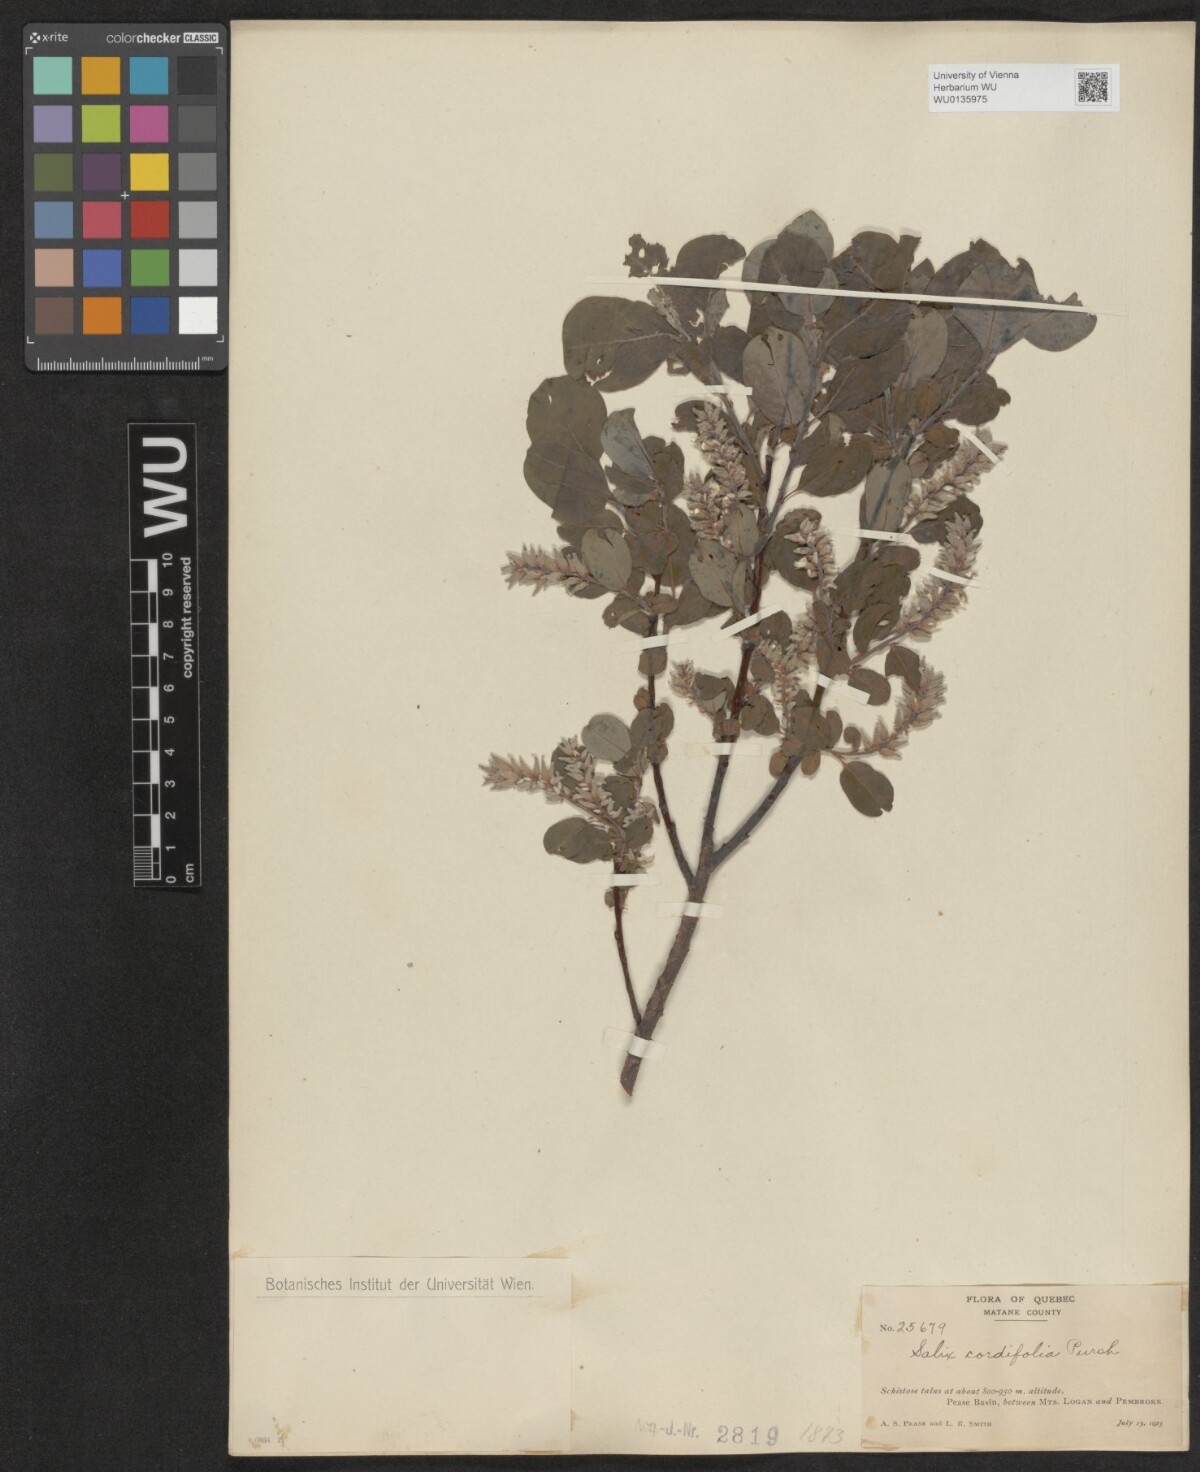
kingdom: Plantae
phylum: Tracheophyta
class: Magnoliopsida
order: Malpighiales
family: Salicaceae
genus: Salix
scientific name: Salix
